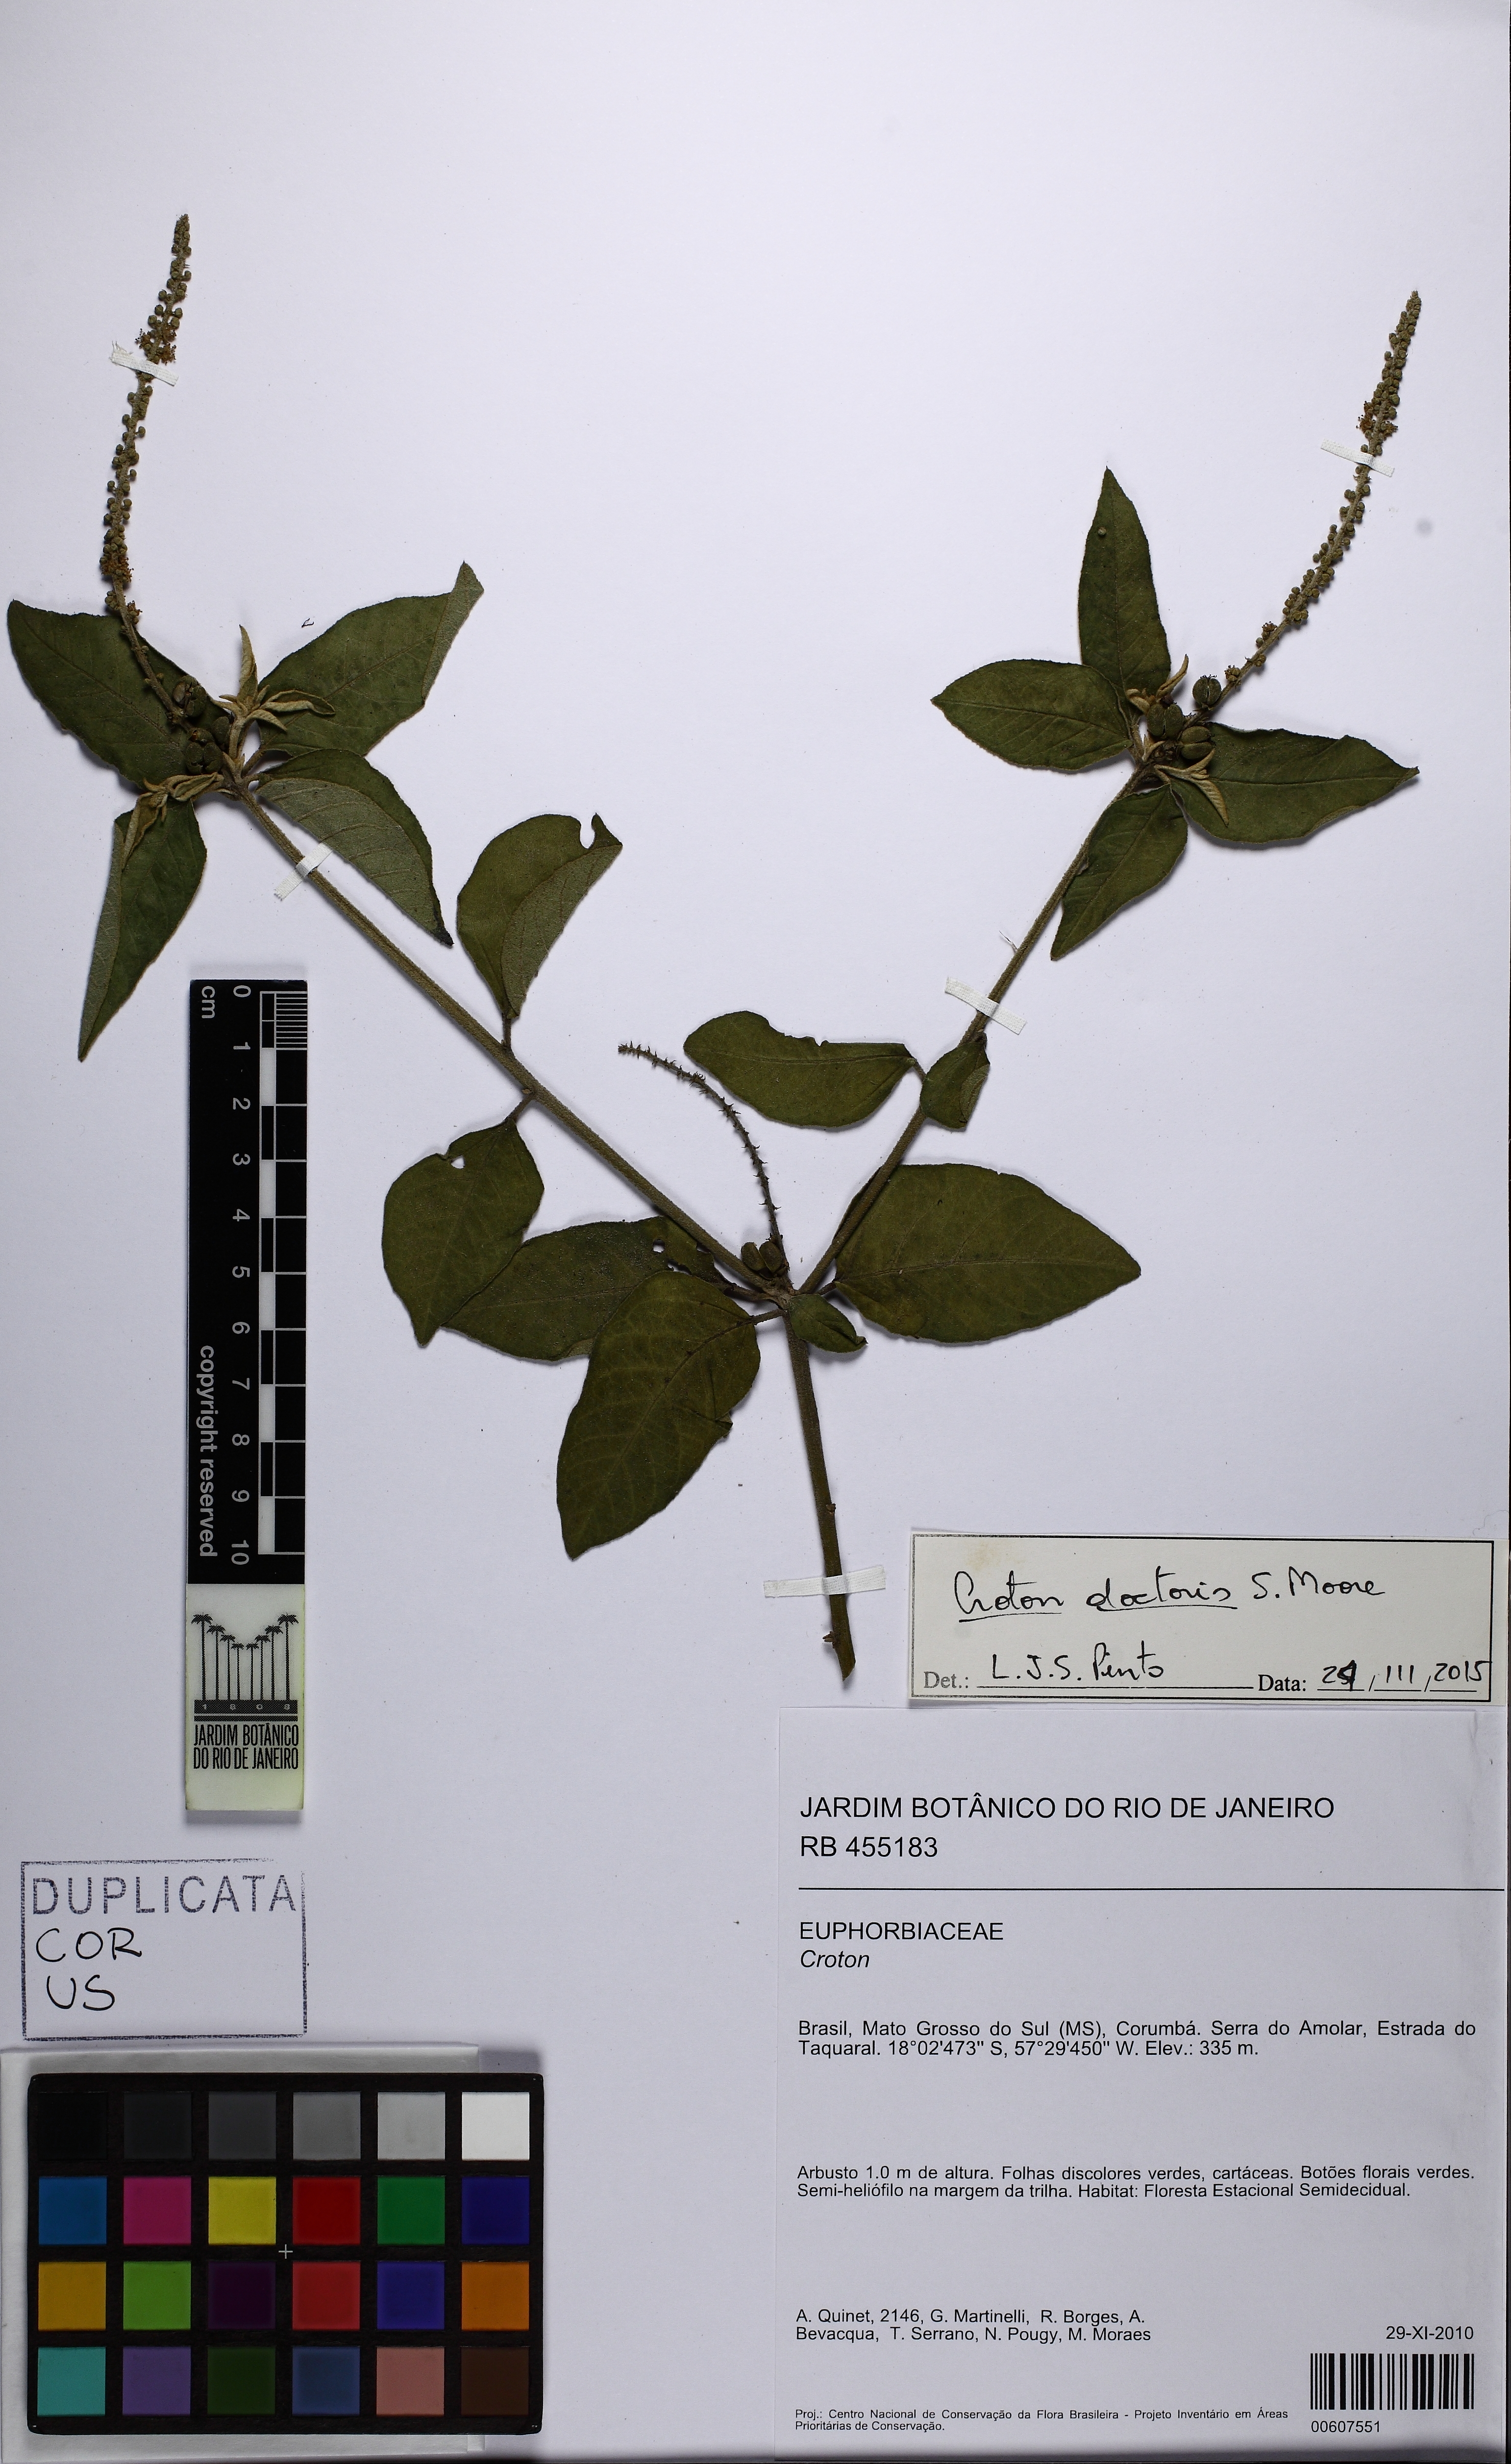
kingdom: Plantae
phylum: Tracheophyta
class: Magnoliopsida
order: Malpighiales
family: Euphorbiaceae
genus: Croton
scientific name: Croton doctoris
